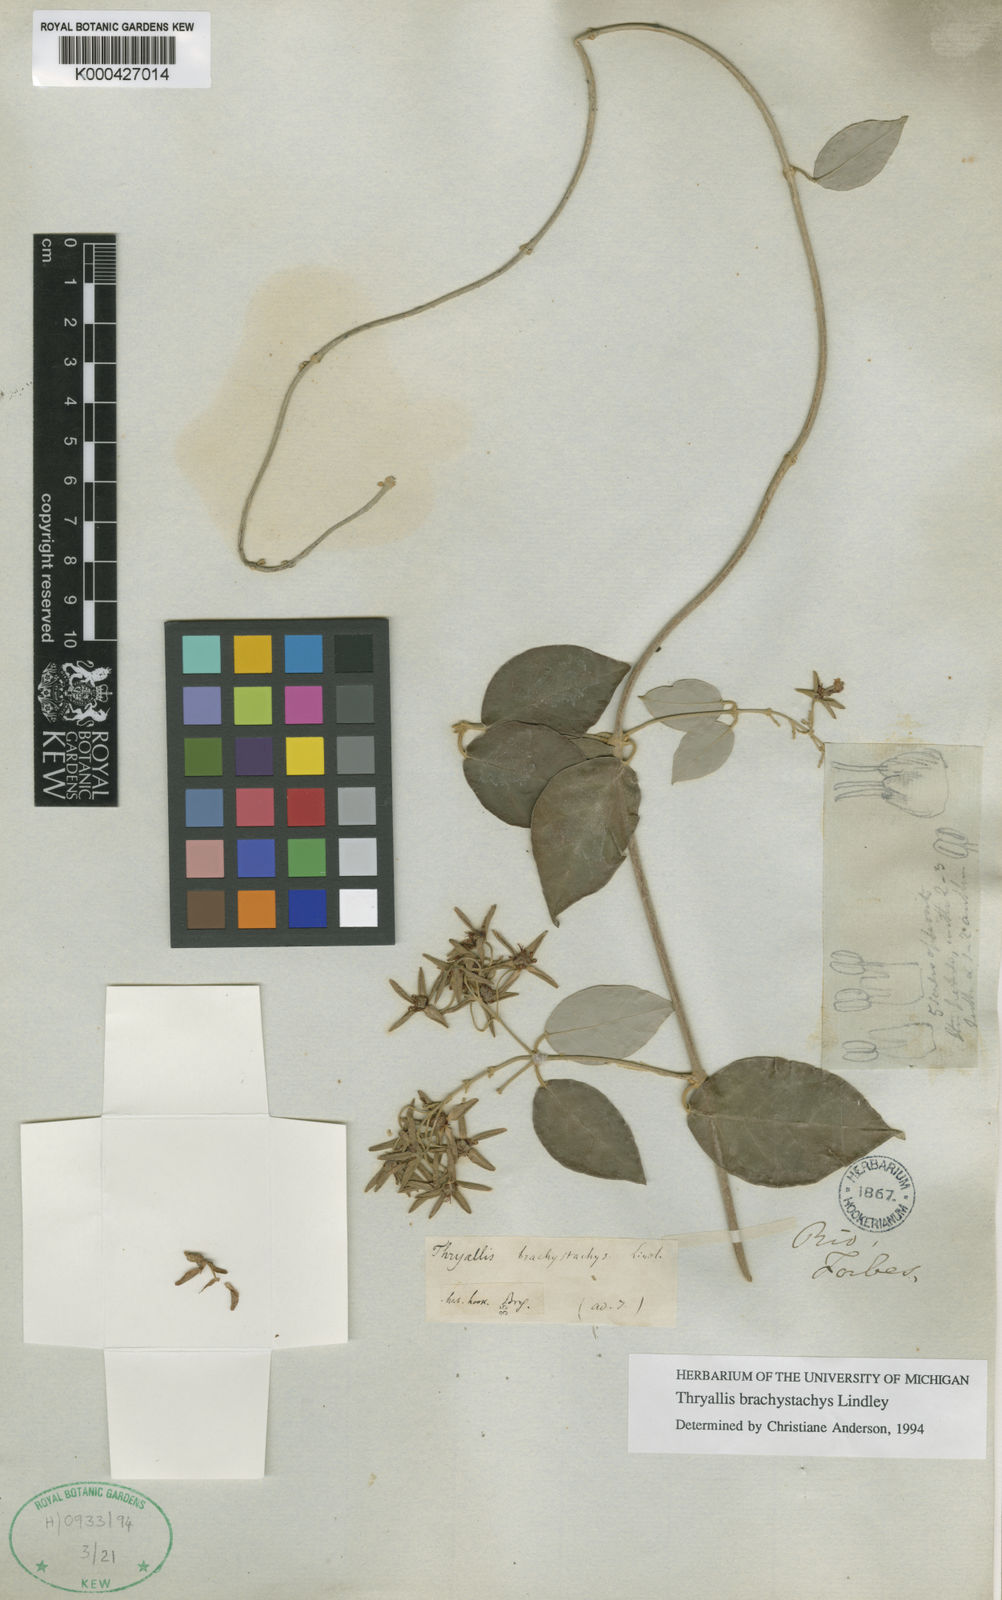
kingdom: Plantae
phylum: Tracheophyta
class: Magnoliopsida
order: Malpighiales
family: Malpighiaceae
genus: Thryallis
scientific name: Thryallis brachystachys
